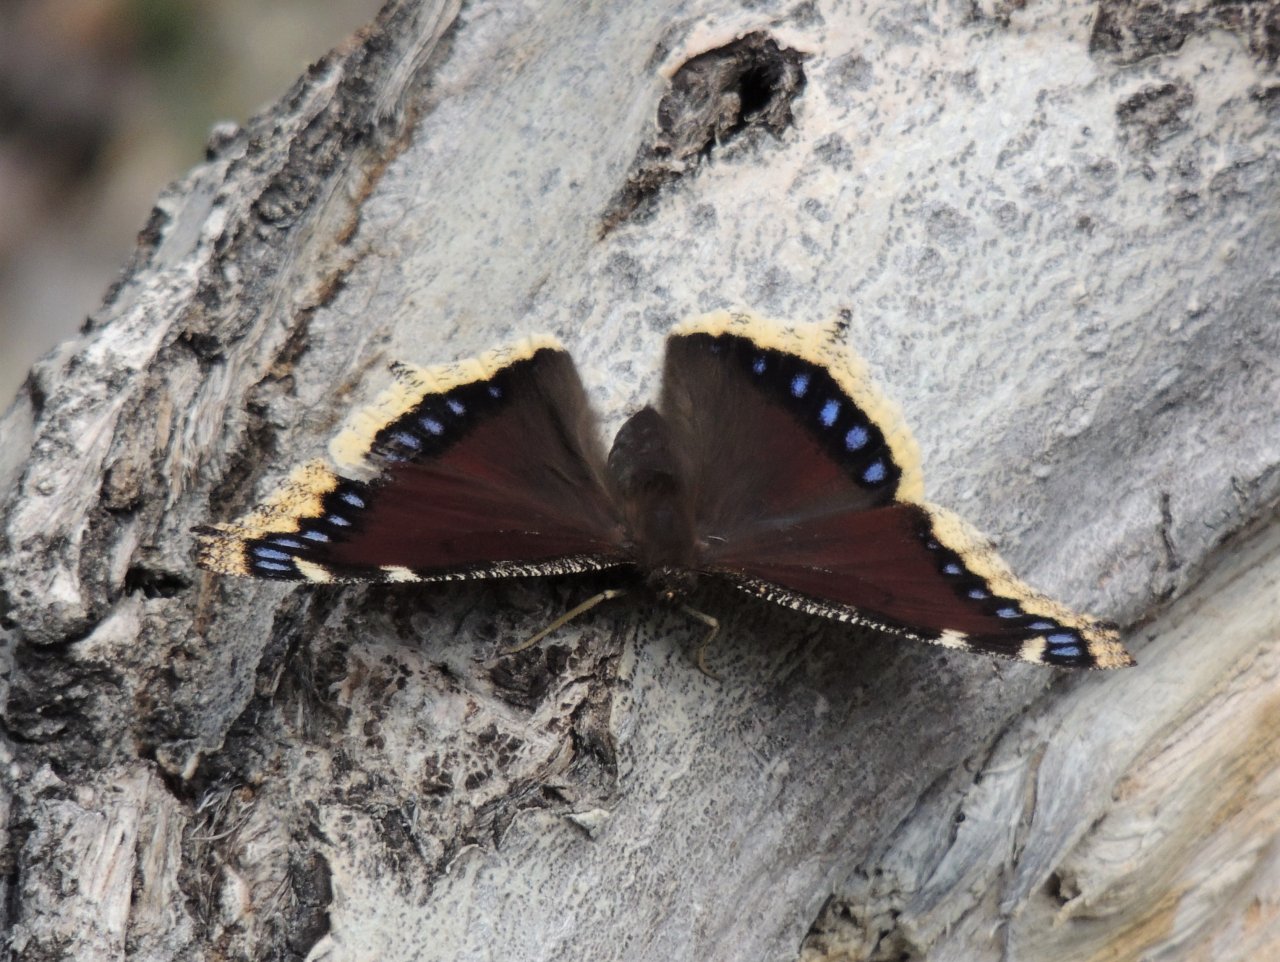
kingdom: Animalia
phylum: Arthropoda
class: Insecta
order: Lepidoptera
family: Nymphalidae
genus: Nymphalis
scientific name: Nymphalis antiopa
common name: Mourning Cloak
